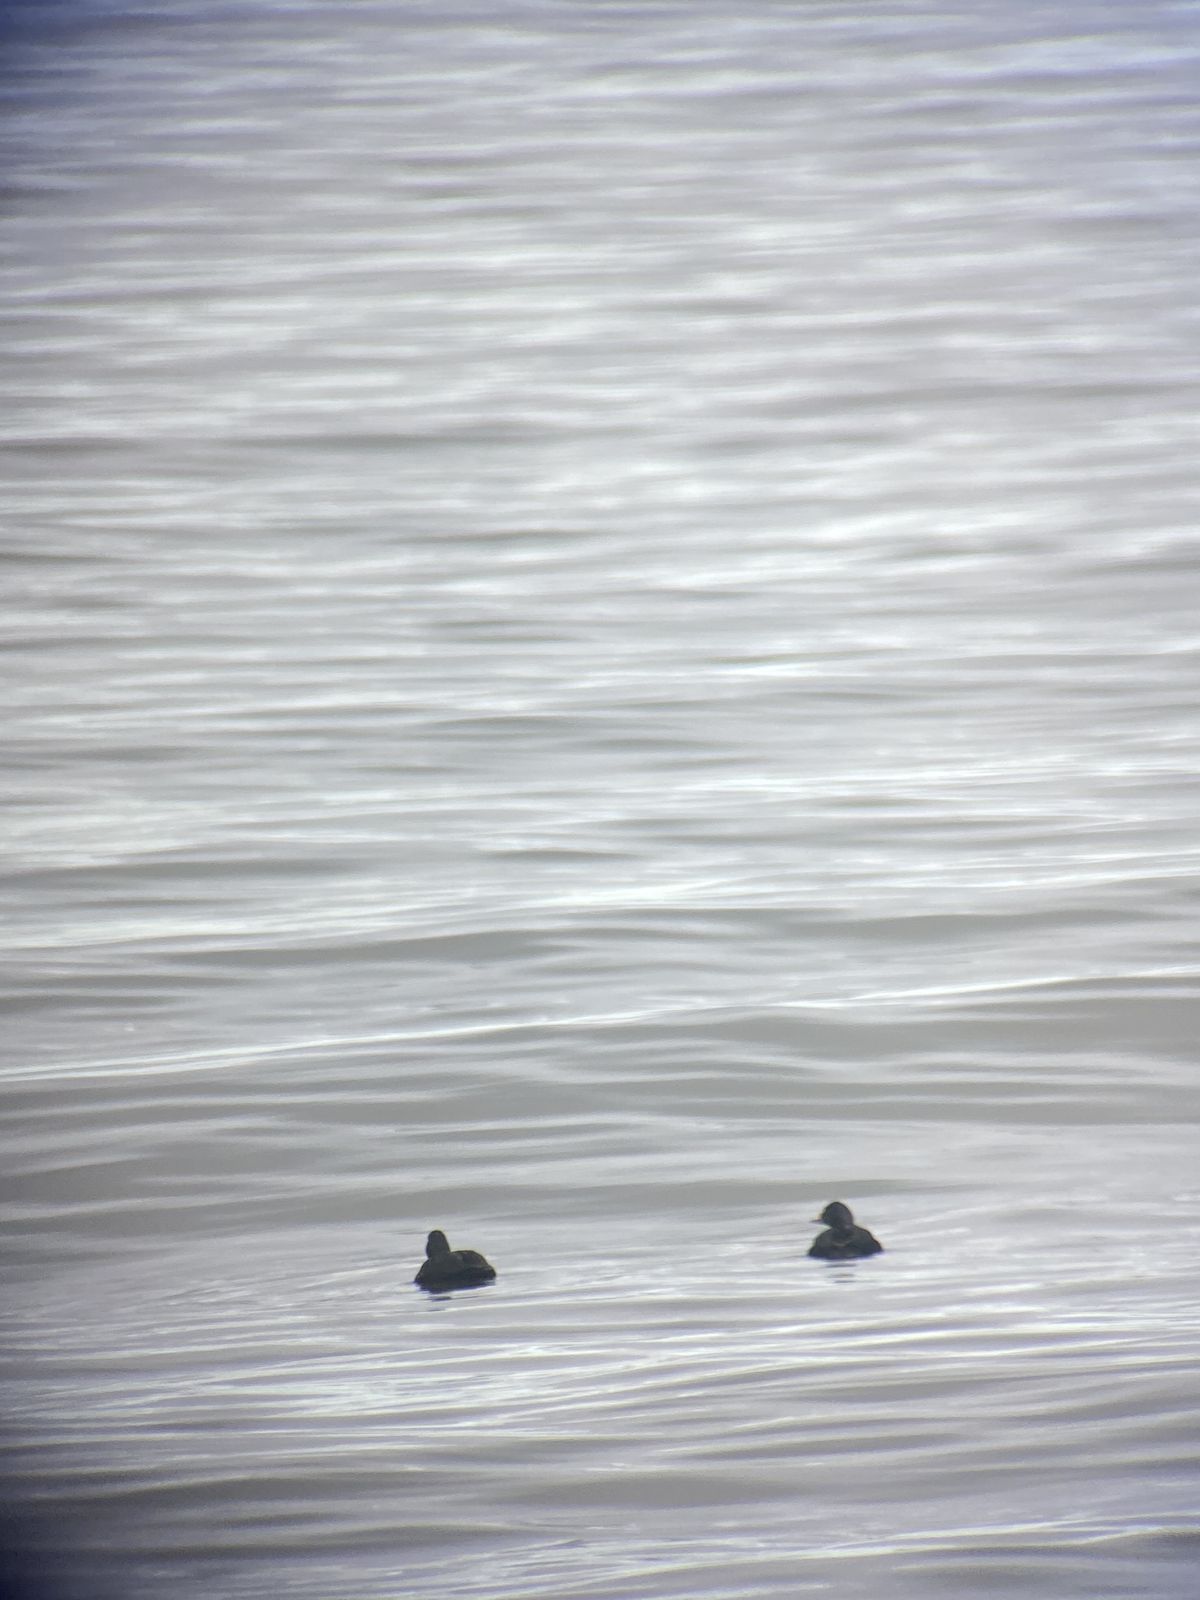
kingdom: Animalia
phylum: Chordata
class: Aves
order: Anseriformes
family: Anatidae
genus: Melanitta
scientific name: Melanitta nigra
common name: Common scoter
